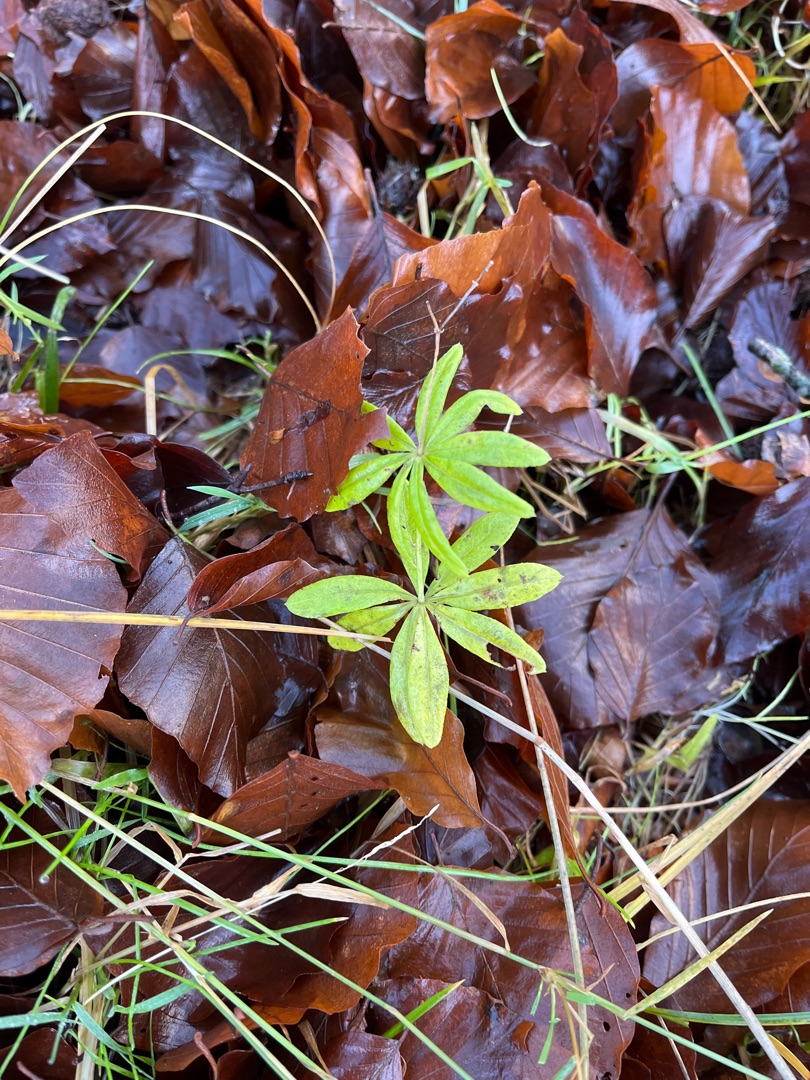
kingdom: Plantae
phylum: Tracheophyta
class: Magnoliopsida
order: Gentianales
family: Rubiaceae
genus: Galium
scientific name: Galium odoratum
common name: Skovmærke
